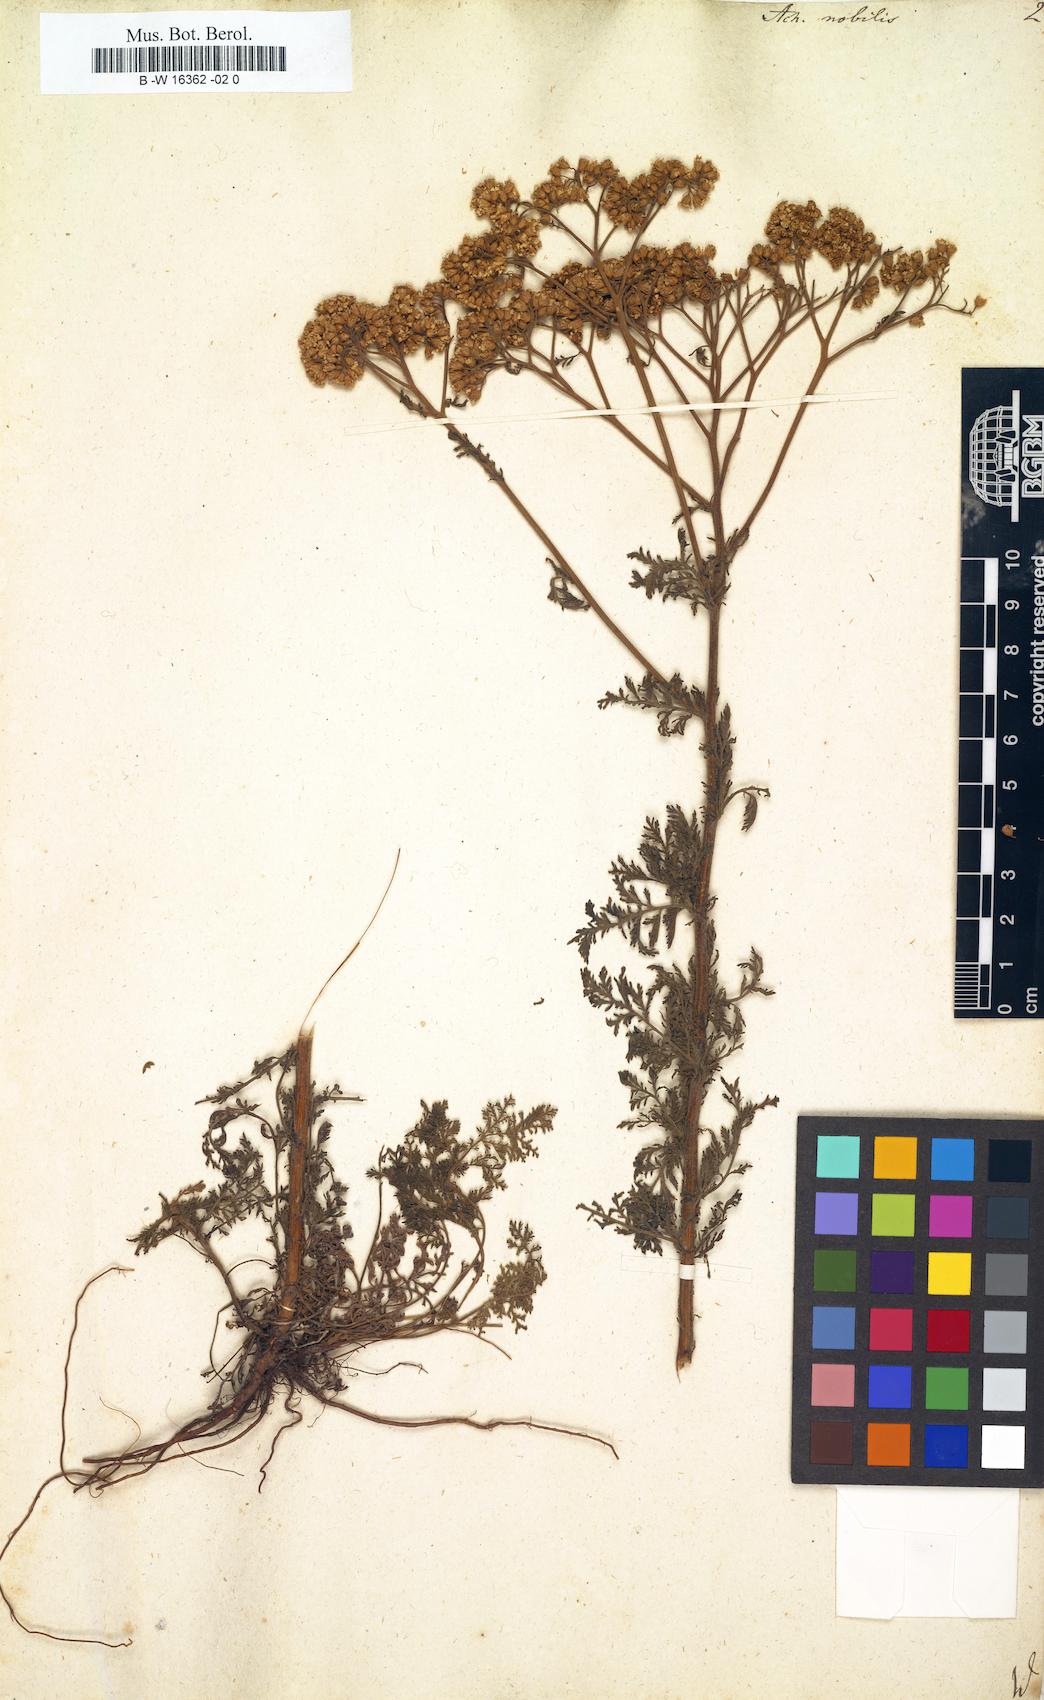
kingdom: Plantae
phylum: Tracheophyta
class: Magnoliopsida
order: Asterales
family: Asteraceae
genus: Achillea
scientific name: Achillea nobilis
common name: Noble yarrow
